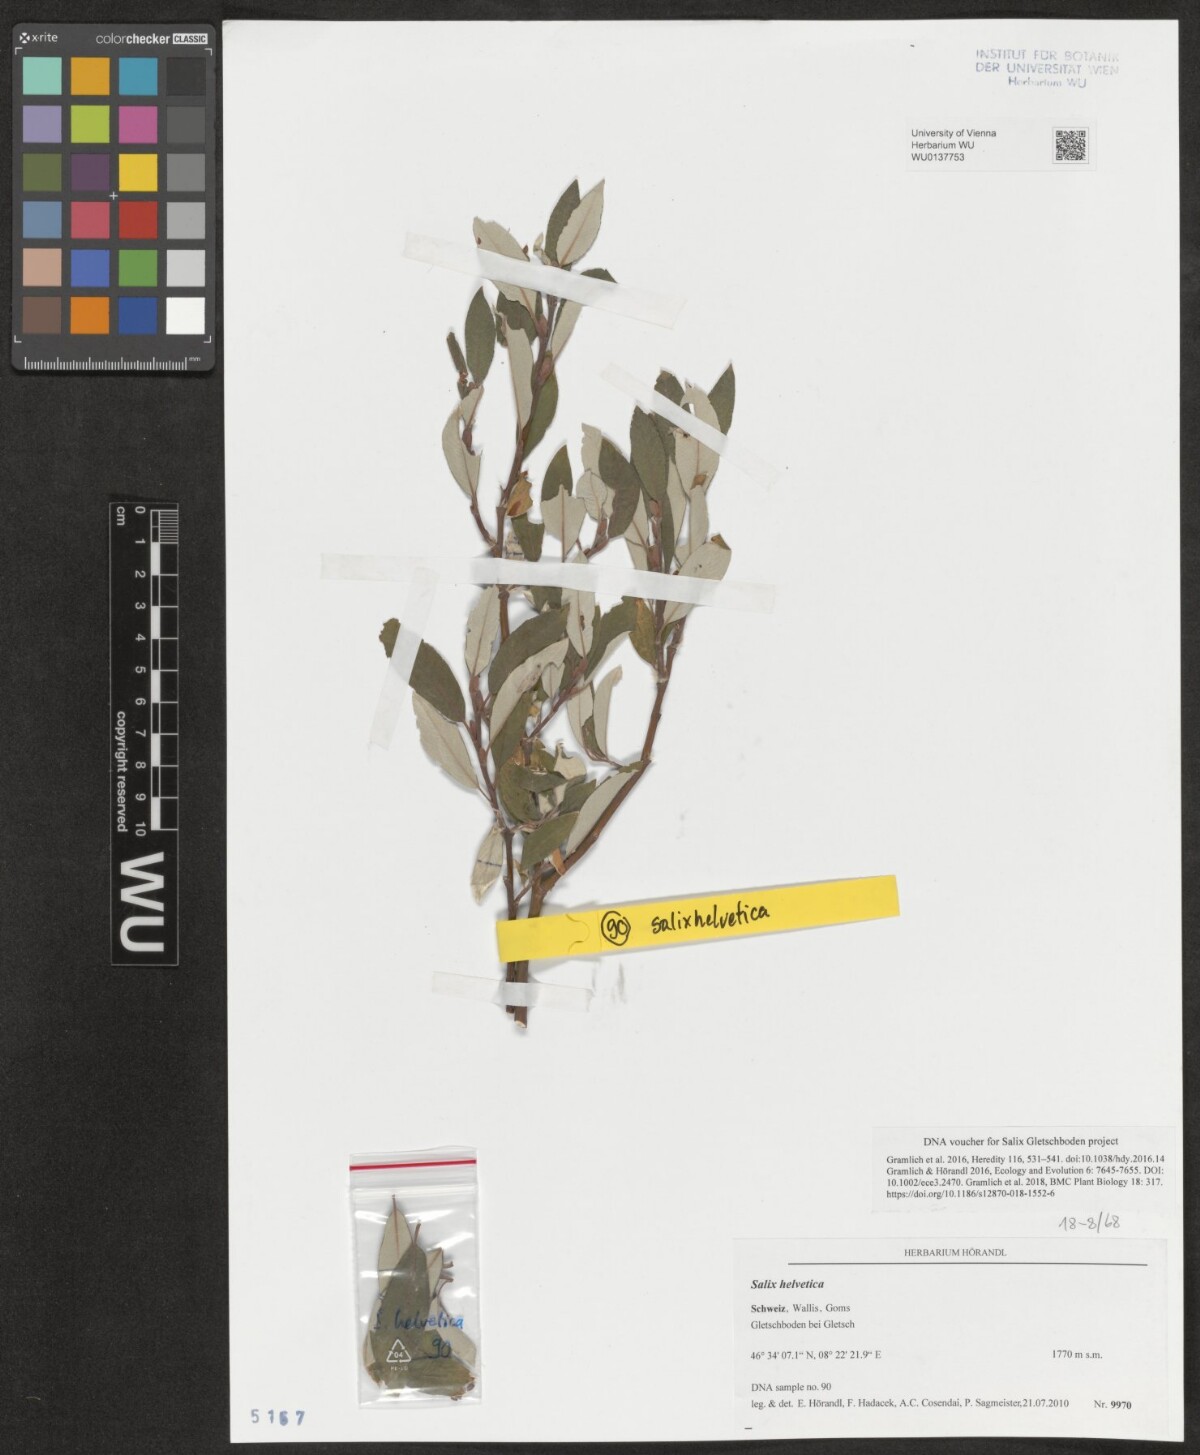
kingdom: Plantae
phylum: Tracheophyta
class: Magnoliopsida
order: Malpighiales
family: Salicaceae
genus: Salix
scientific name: Salix helvetica
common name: Swiss willow
